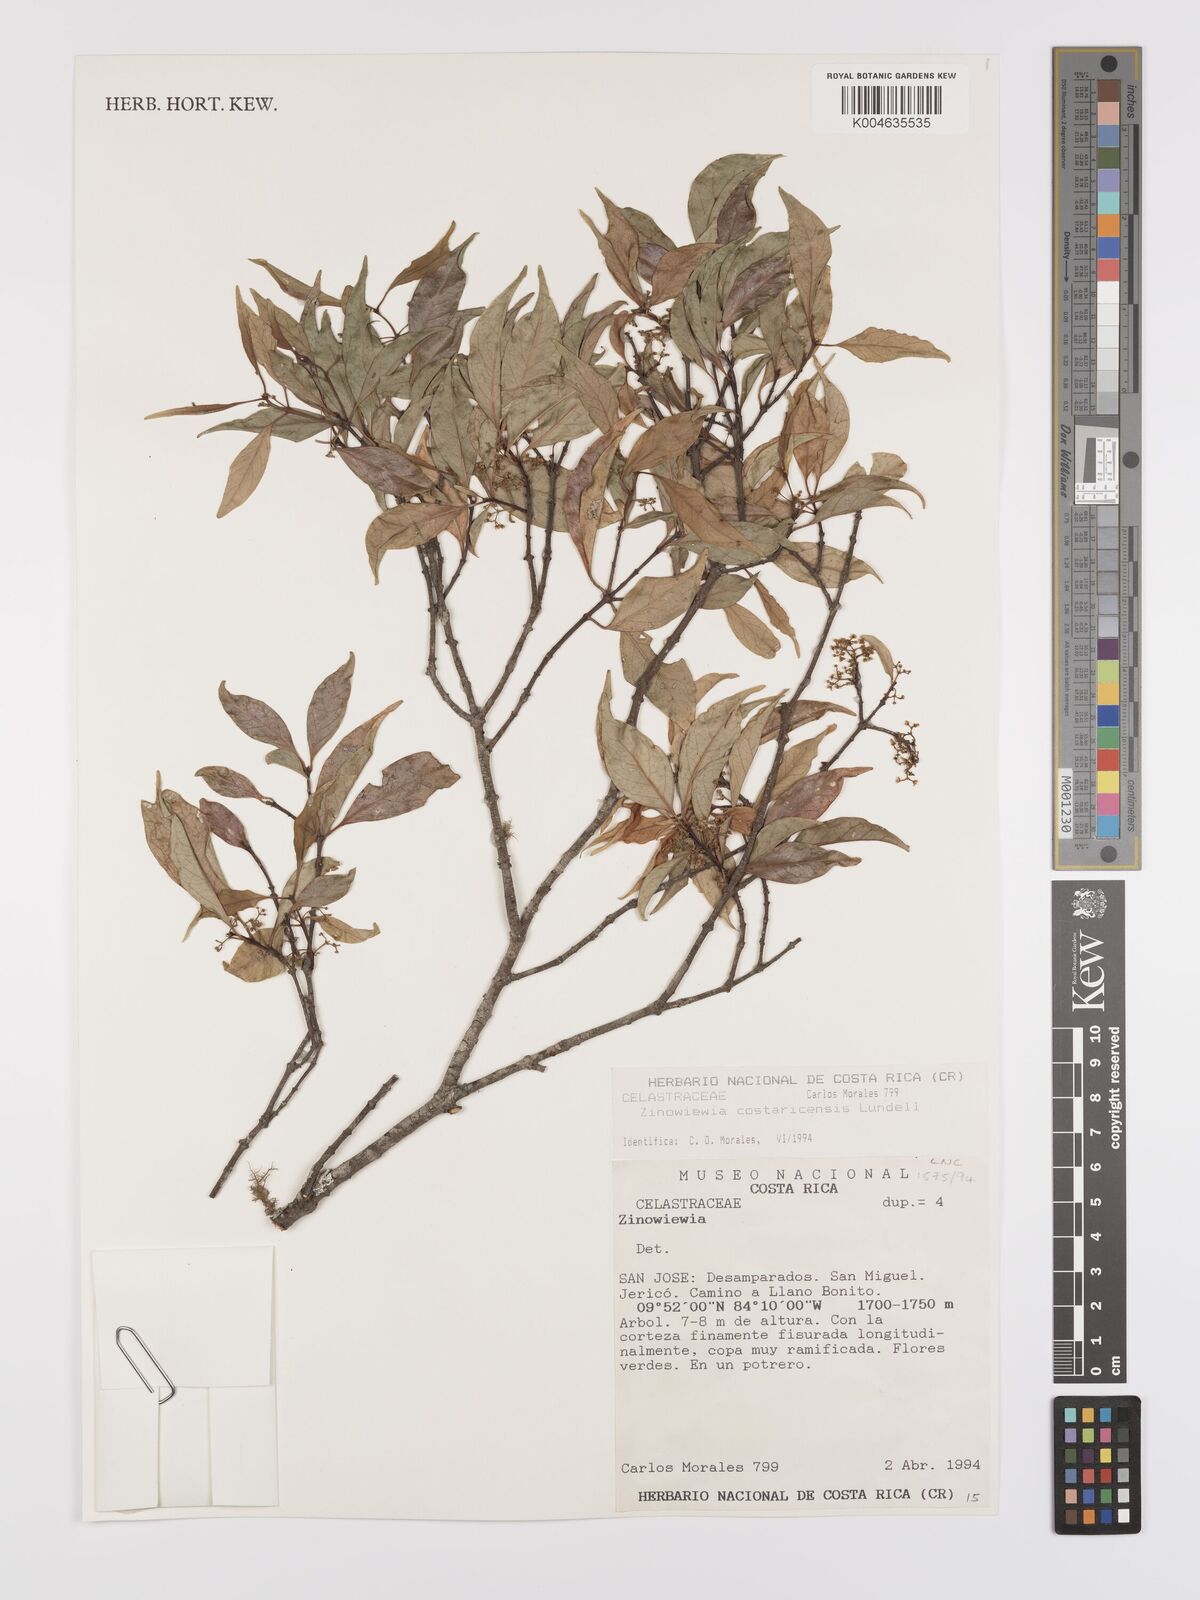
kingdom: Plantae
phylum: Tracheophyta
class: Magnoliopsida
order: Celastrales
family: Celastraceae
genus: Zinowiewia
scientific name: Zinowiewia integerrima
